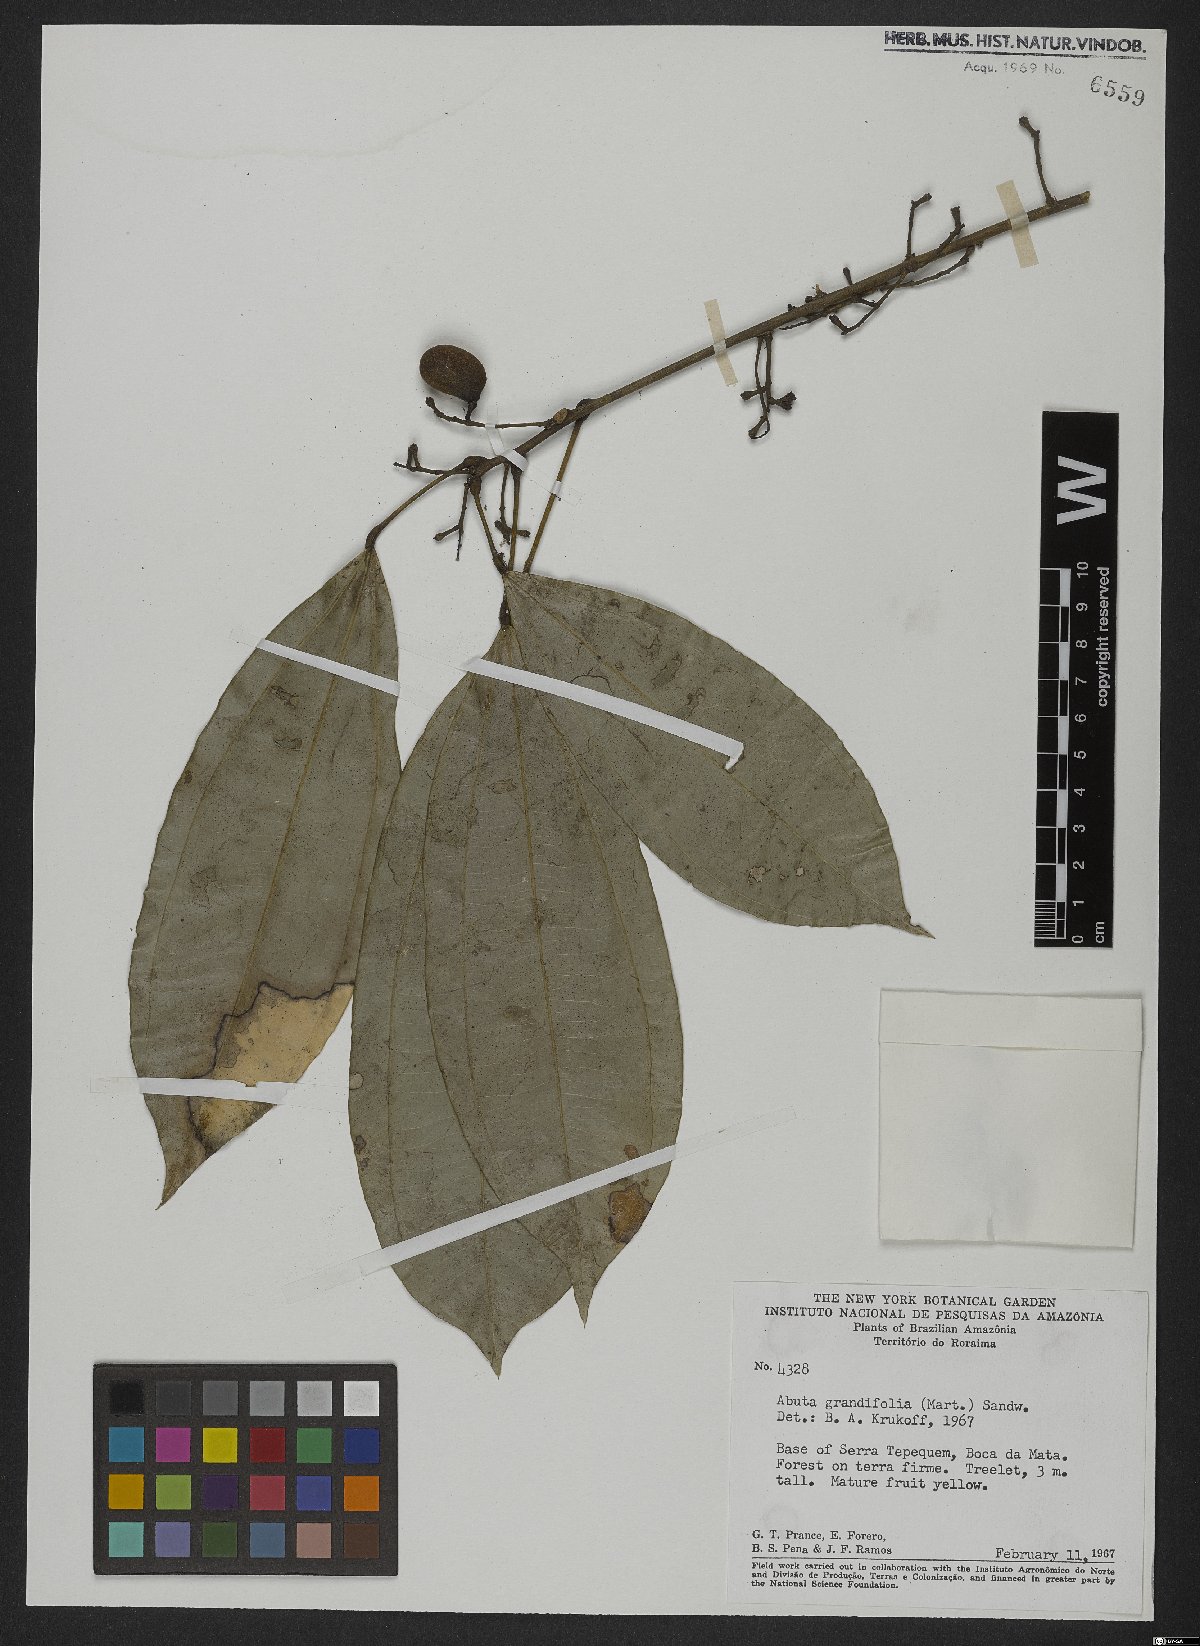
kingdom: Plantae
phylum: Tracheophyta
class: Magnoliopsida
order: Ranunculales
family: Menispermaceae
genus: Abuta
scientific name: Abuta grandifolia
